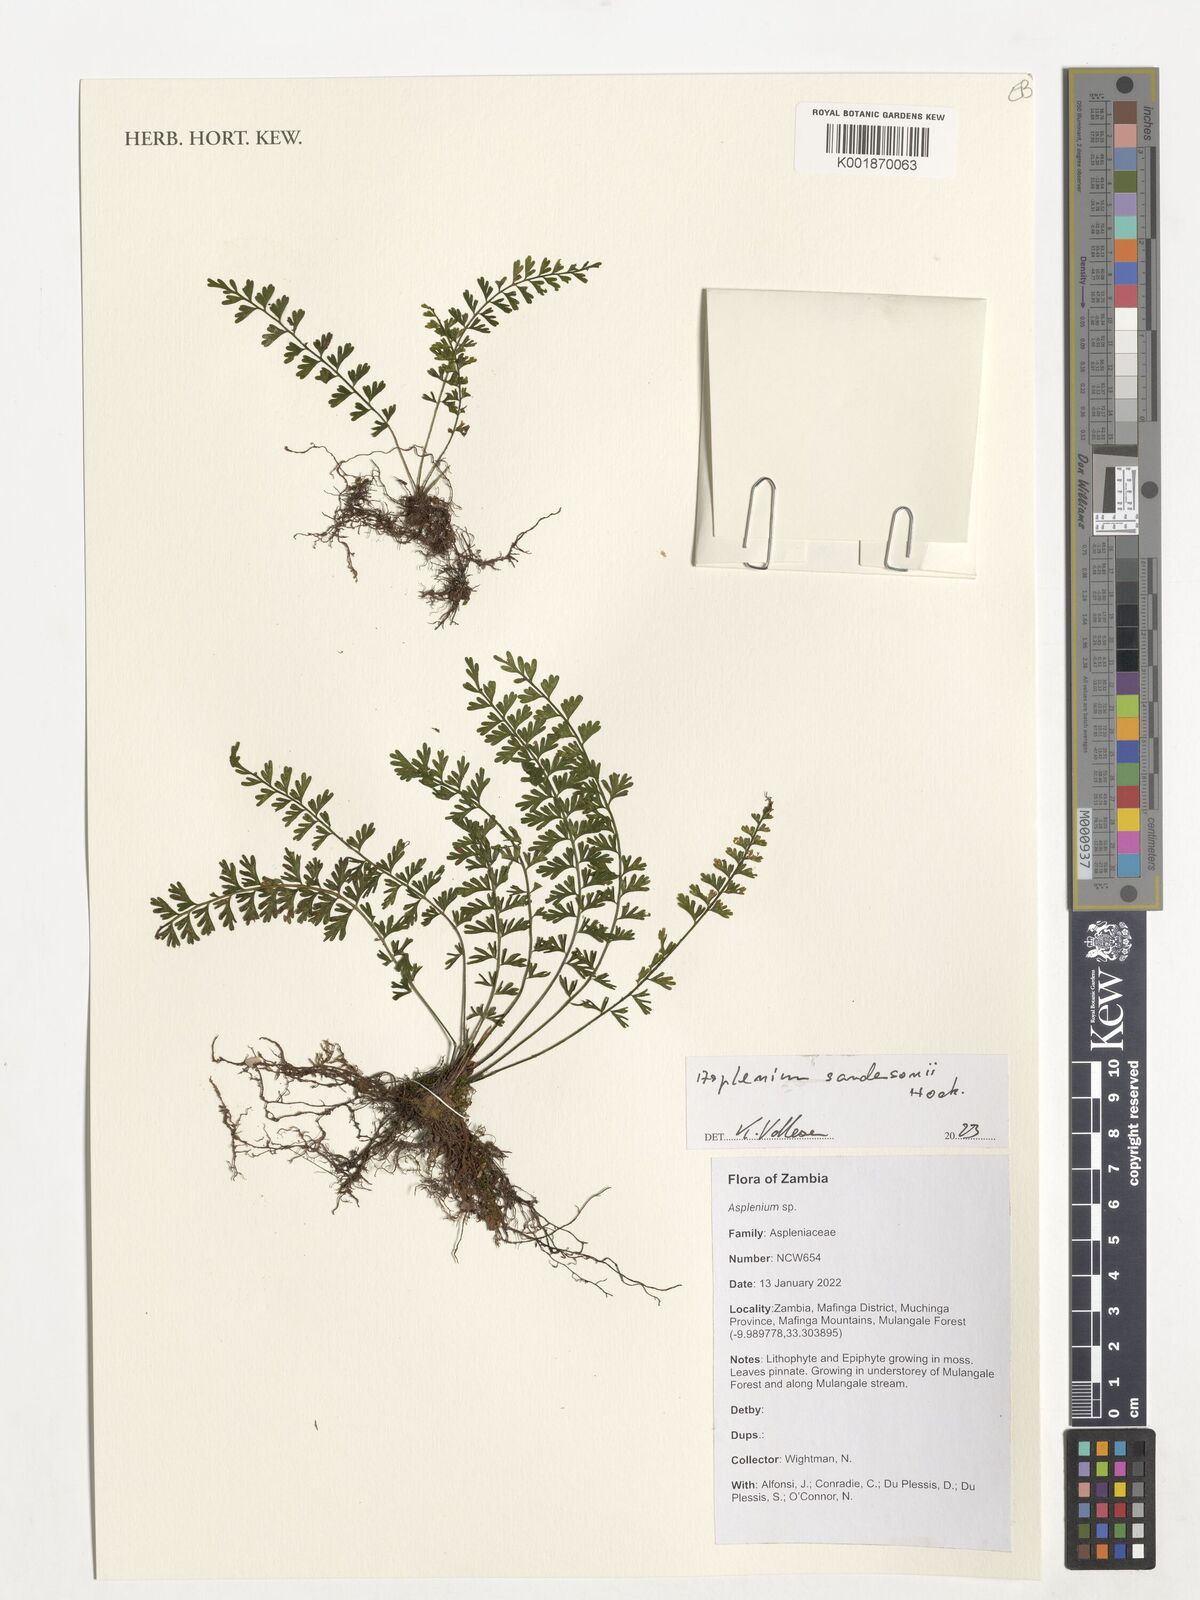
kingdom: Plantae
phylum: Tracheophyta
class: Polypodiopsida
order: Polypodiales
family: Aspleniaceae
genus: Asplenium
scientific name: Asplenium sandersonii
